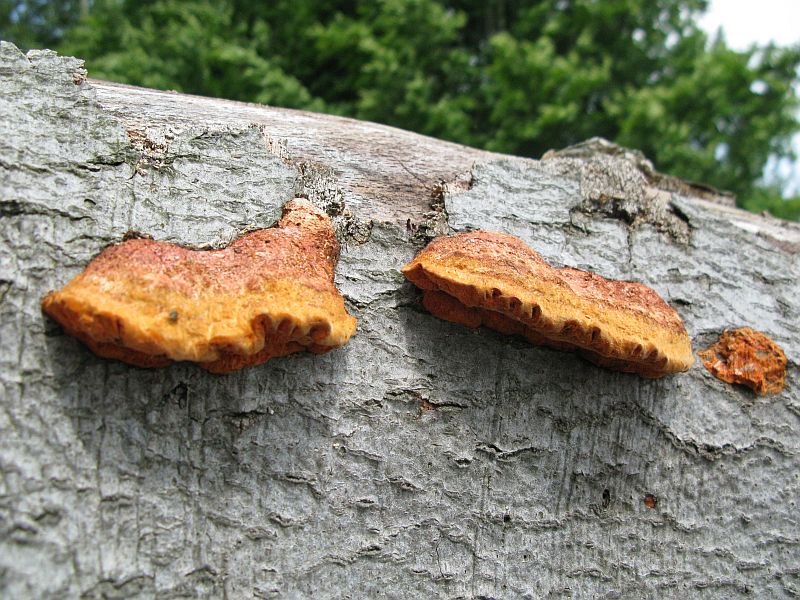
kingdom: Fungi
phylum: Basidiomycota
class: Agaricomycetes
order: Polyporales
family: Polyporaceae
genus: Trametes
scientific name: Trametes cinnabarina
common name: cinnoberporesvamp
